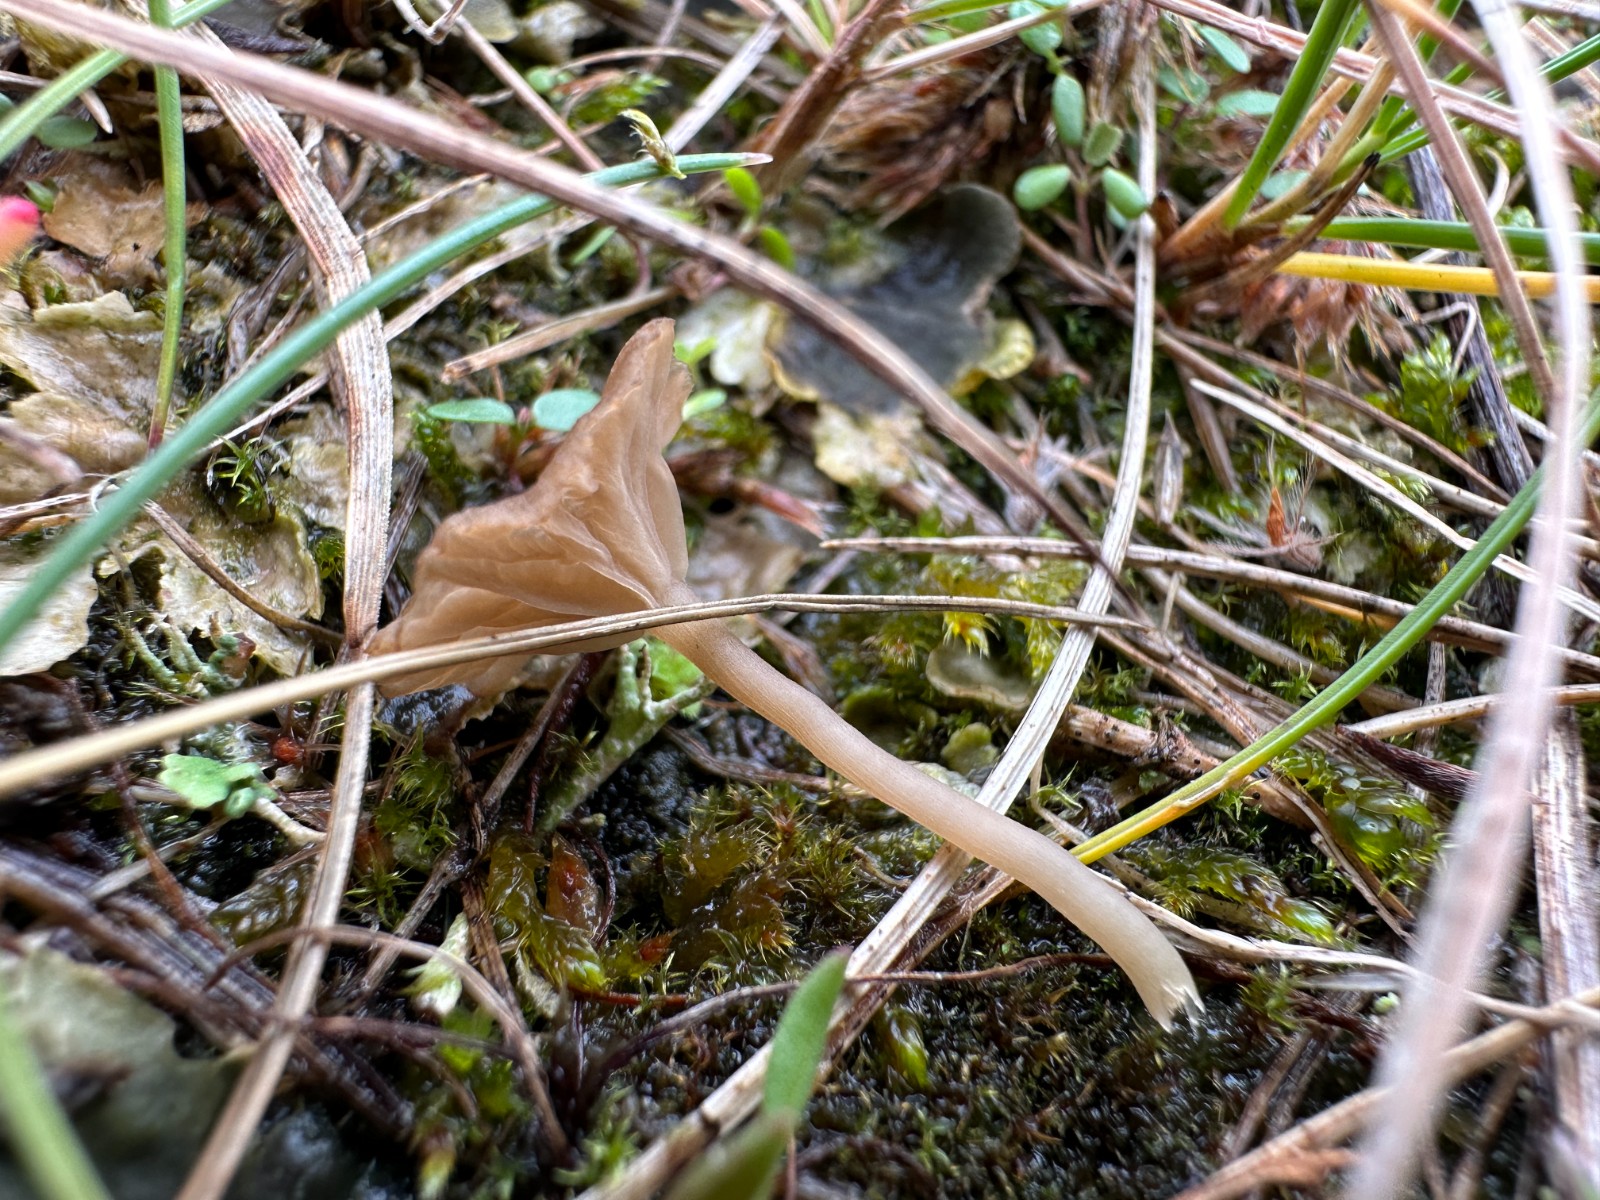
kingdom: Fungi
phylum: Basidiomycota
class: Agaricomycetes
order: Agaricales
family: Hygrophoraceae
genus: Arrhenia
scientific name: Arrhenia peltigerina
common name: skjoldlav-fontænehat
